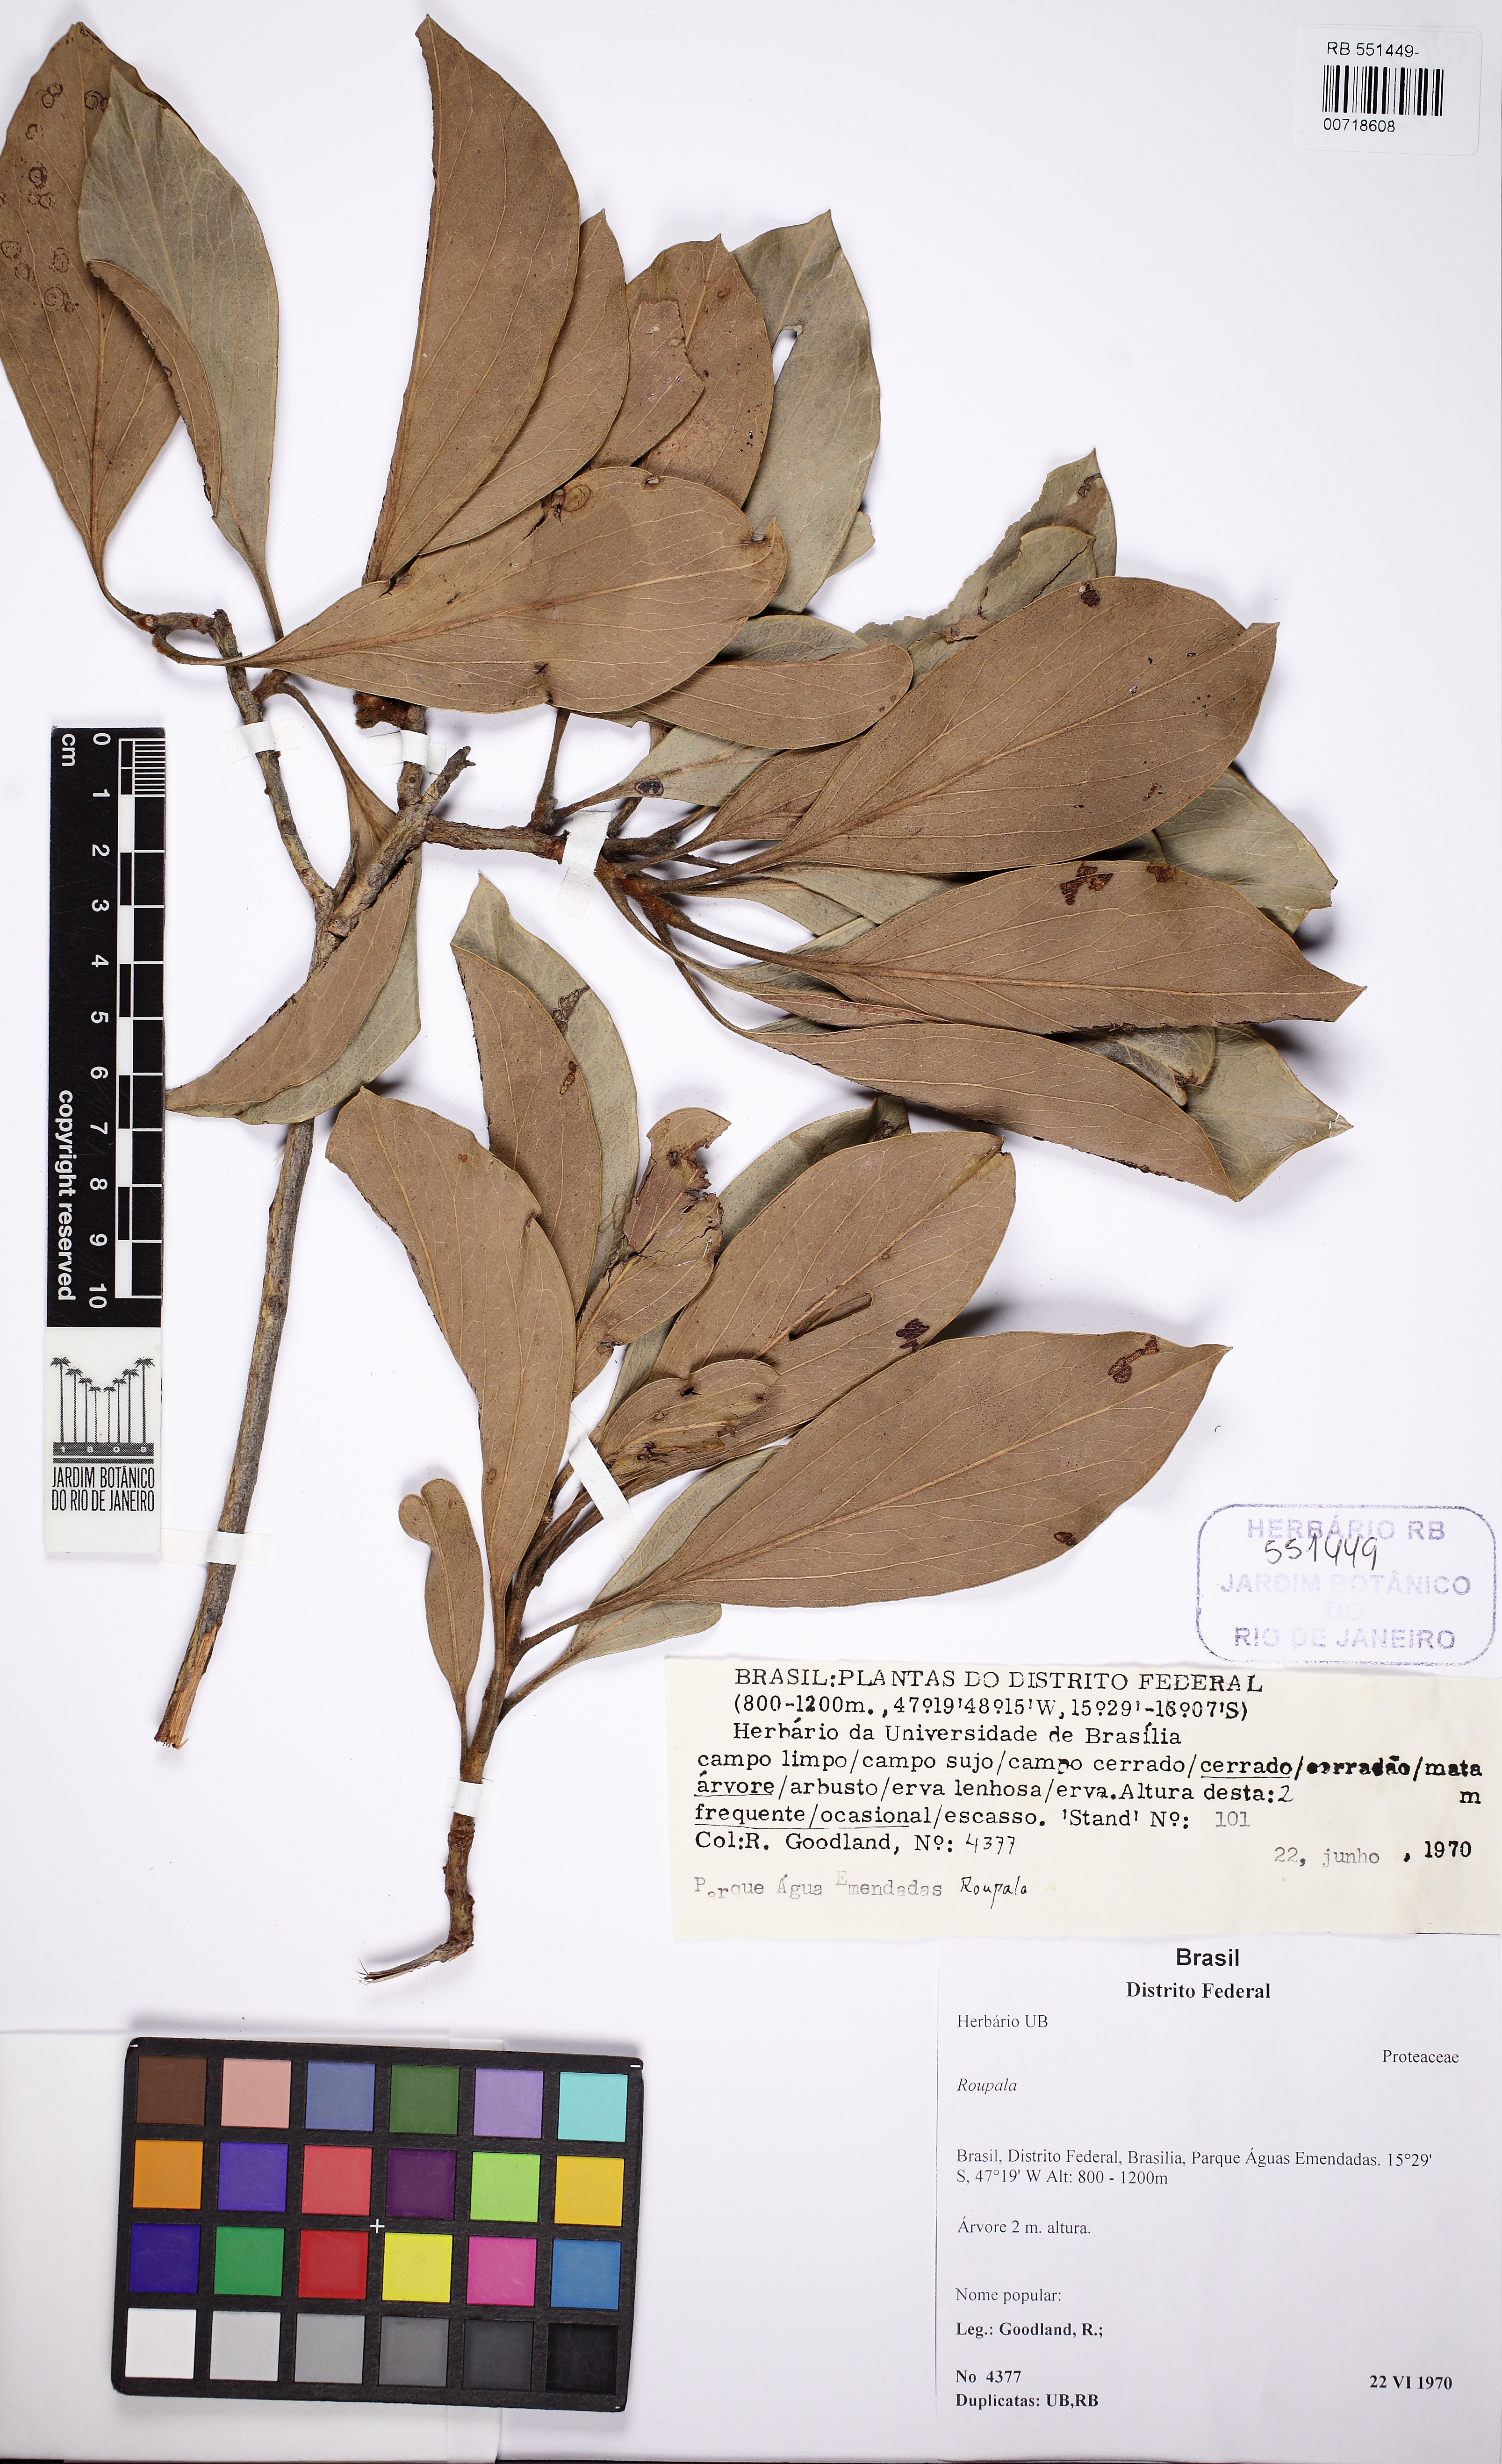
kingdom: Plantae
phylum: Tracheophyta
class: Magnoliopsida
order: Proteales
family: Proteaceae
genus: Roupala
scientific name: Roupala
